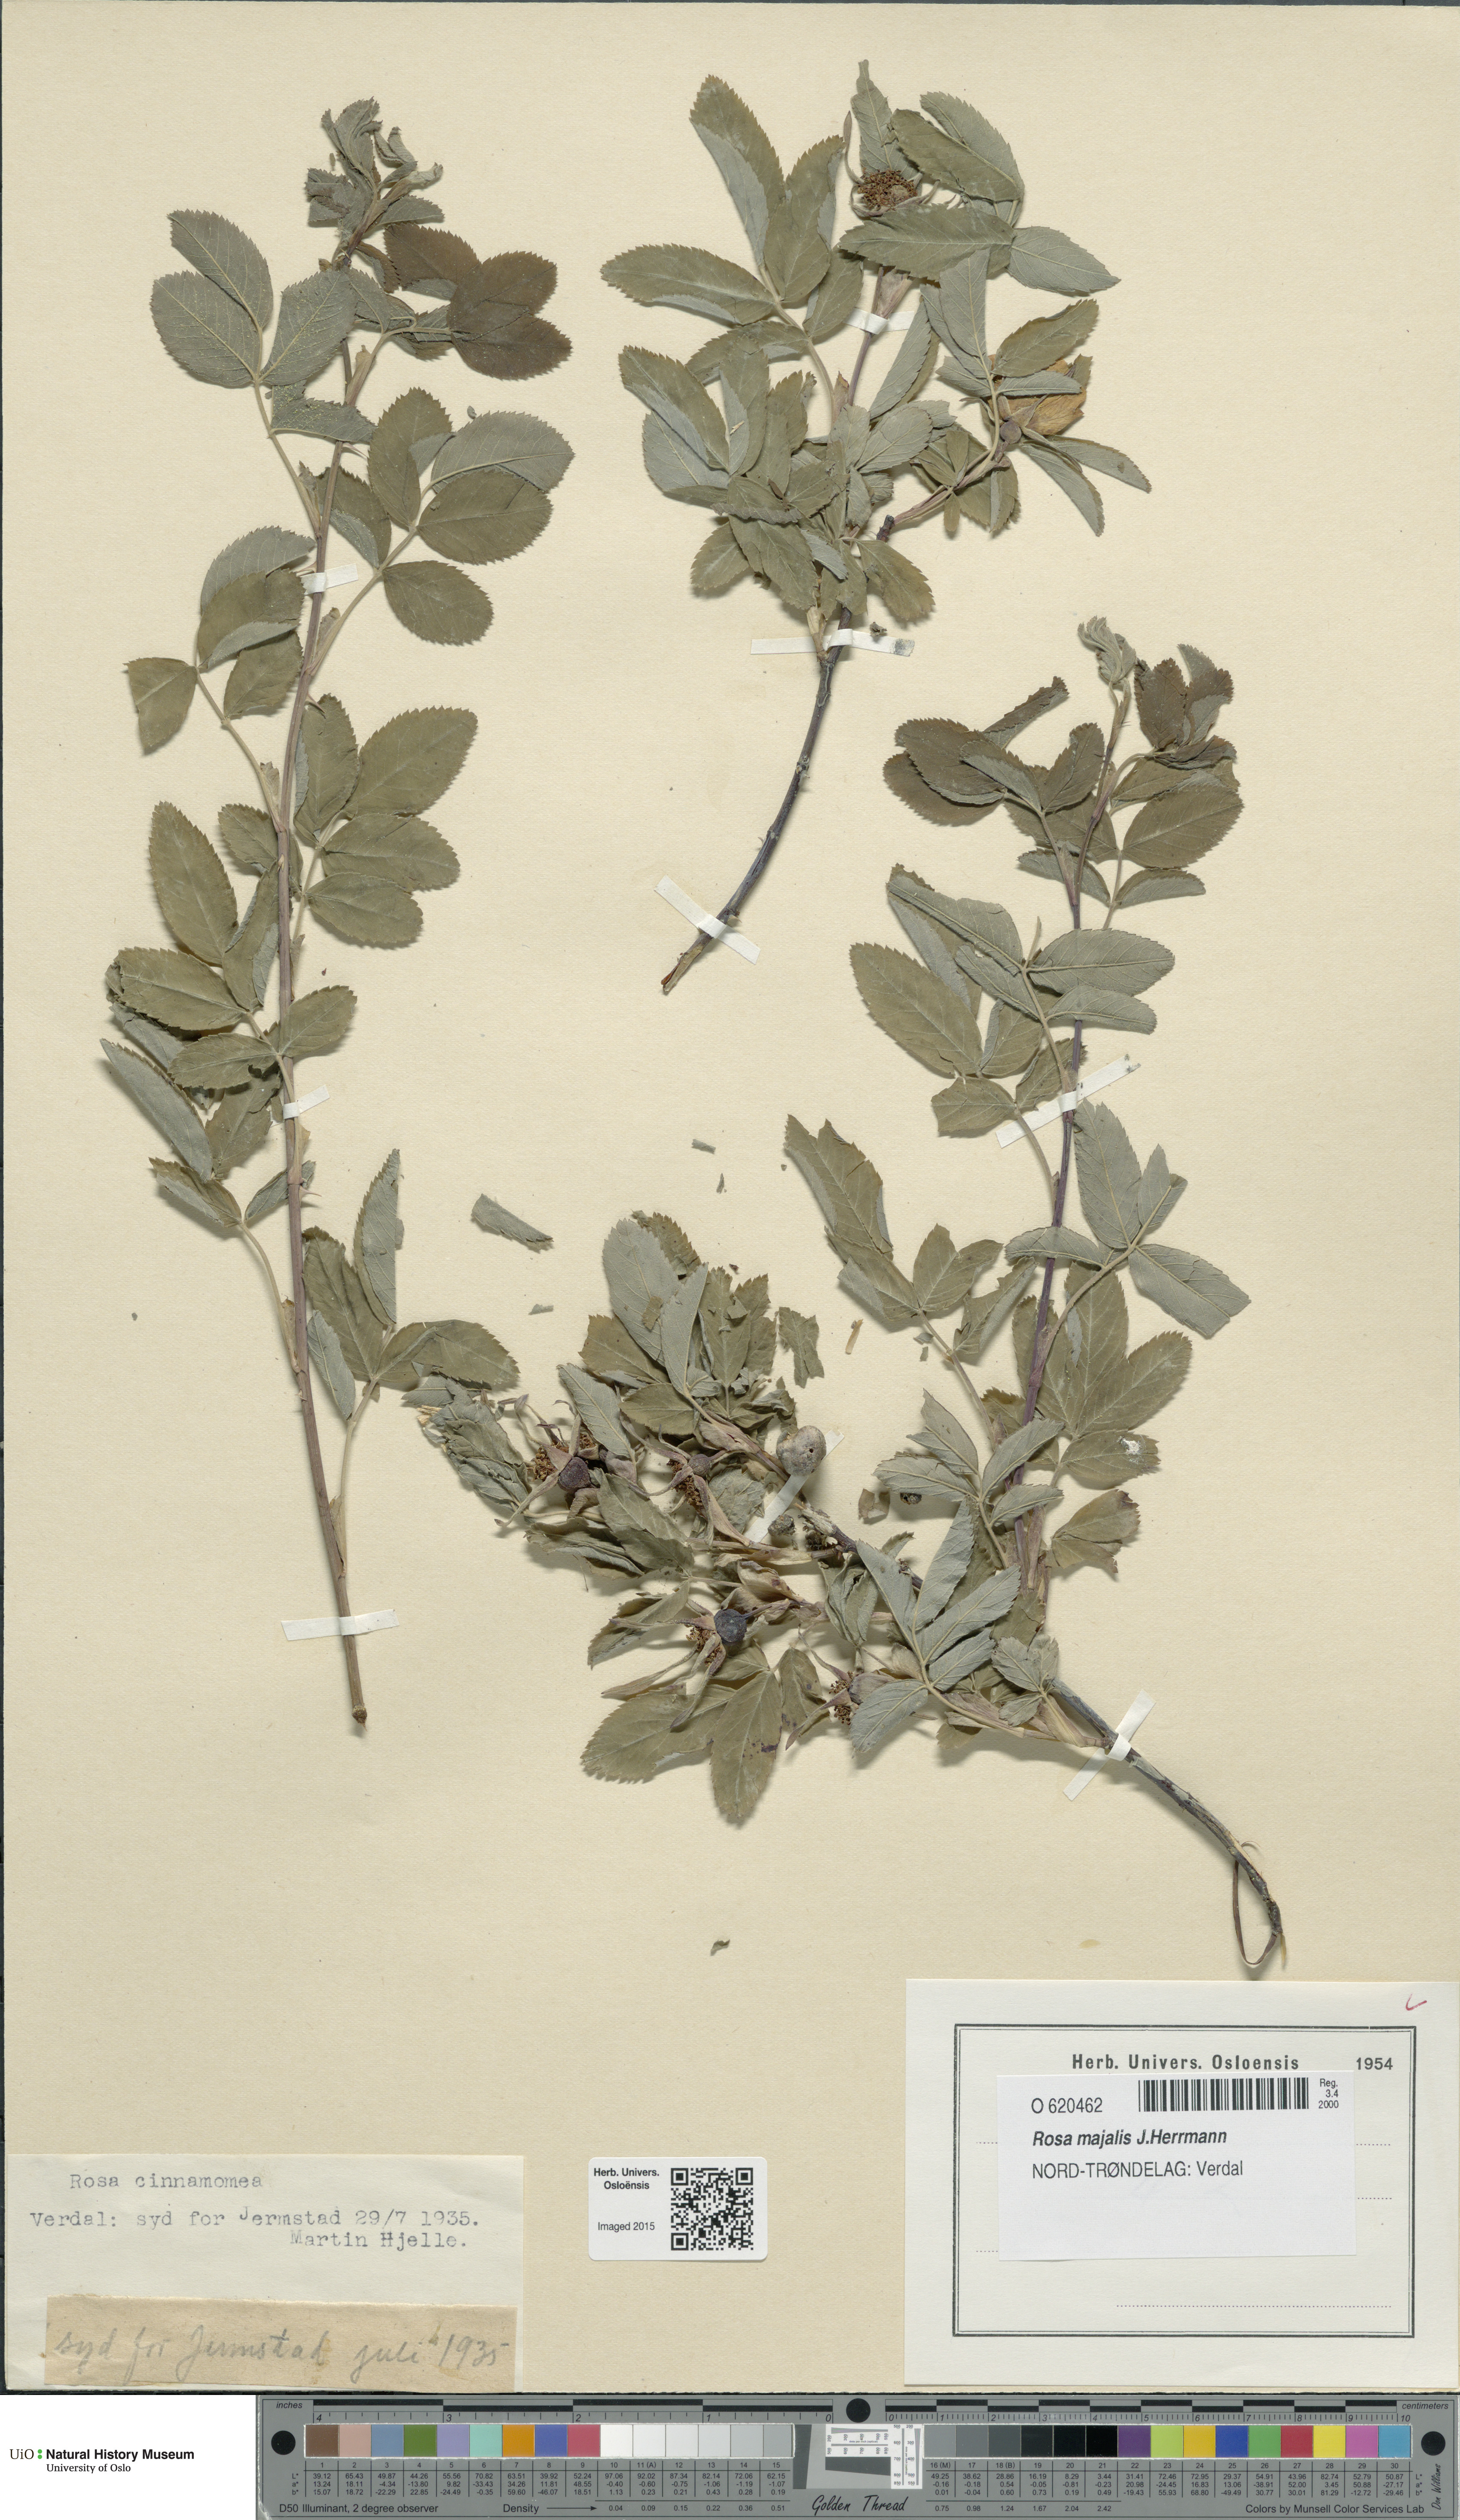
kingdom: Plantae
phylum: Tracheophyta
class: Magnoliopsida
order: Rosales
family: Rosaceae
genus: Rosa
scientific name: Rosa pendulina
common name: Alpine rose
